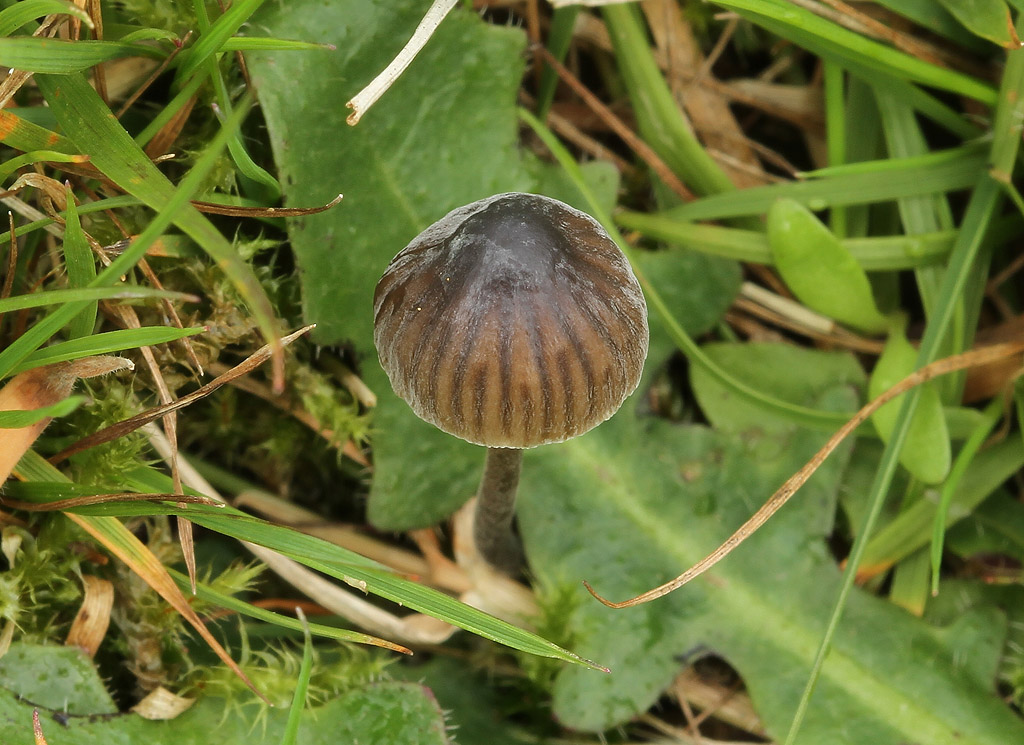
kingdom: Fungi
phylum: Basidiomycota
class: Agaricomycetes
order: Agaricales
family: Mycenaceae
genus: Mycena
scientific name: Mycena leptocephala
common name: klor-huesvamp
